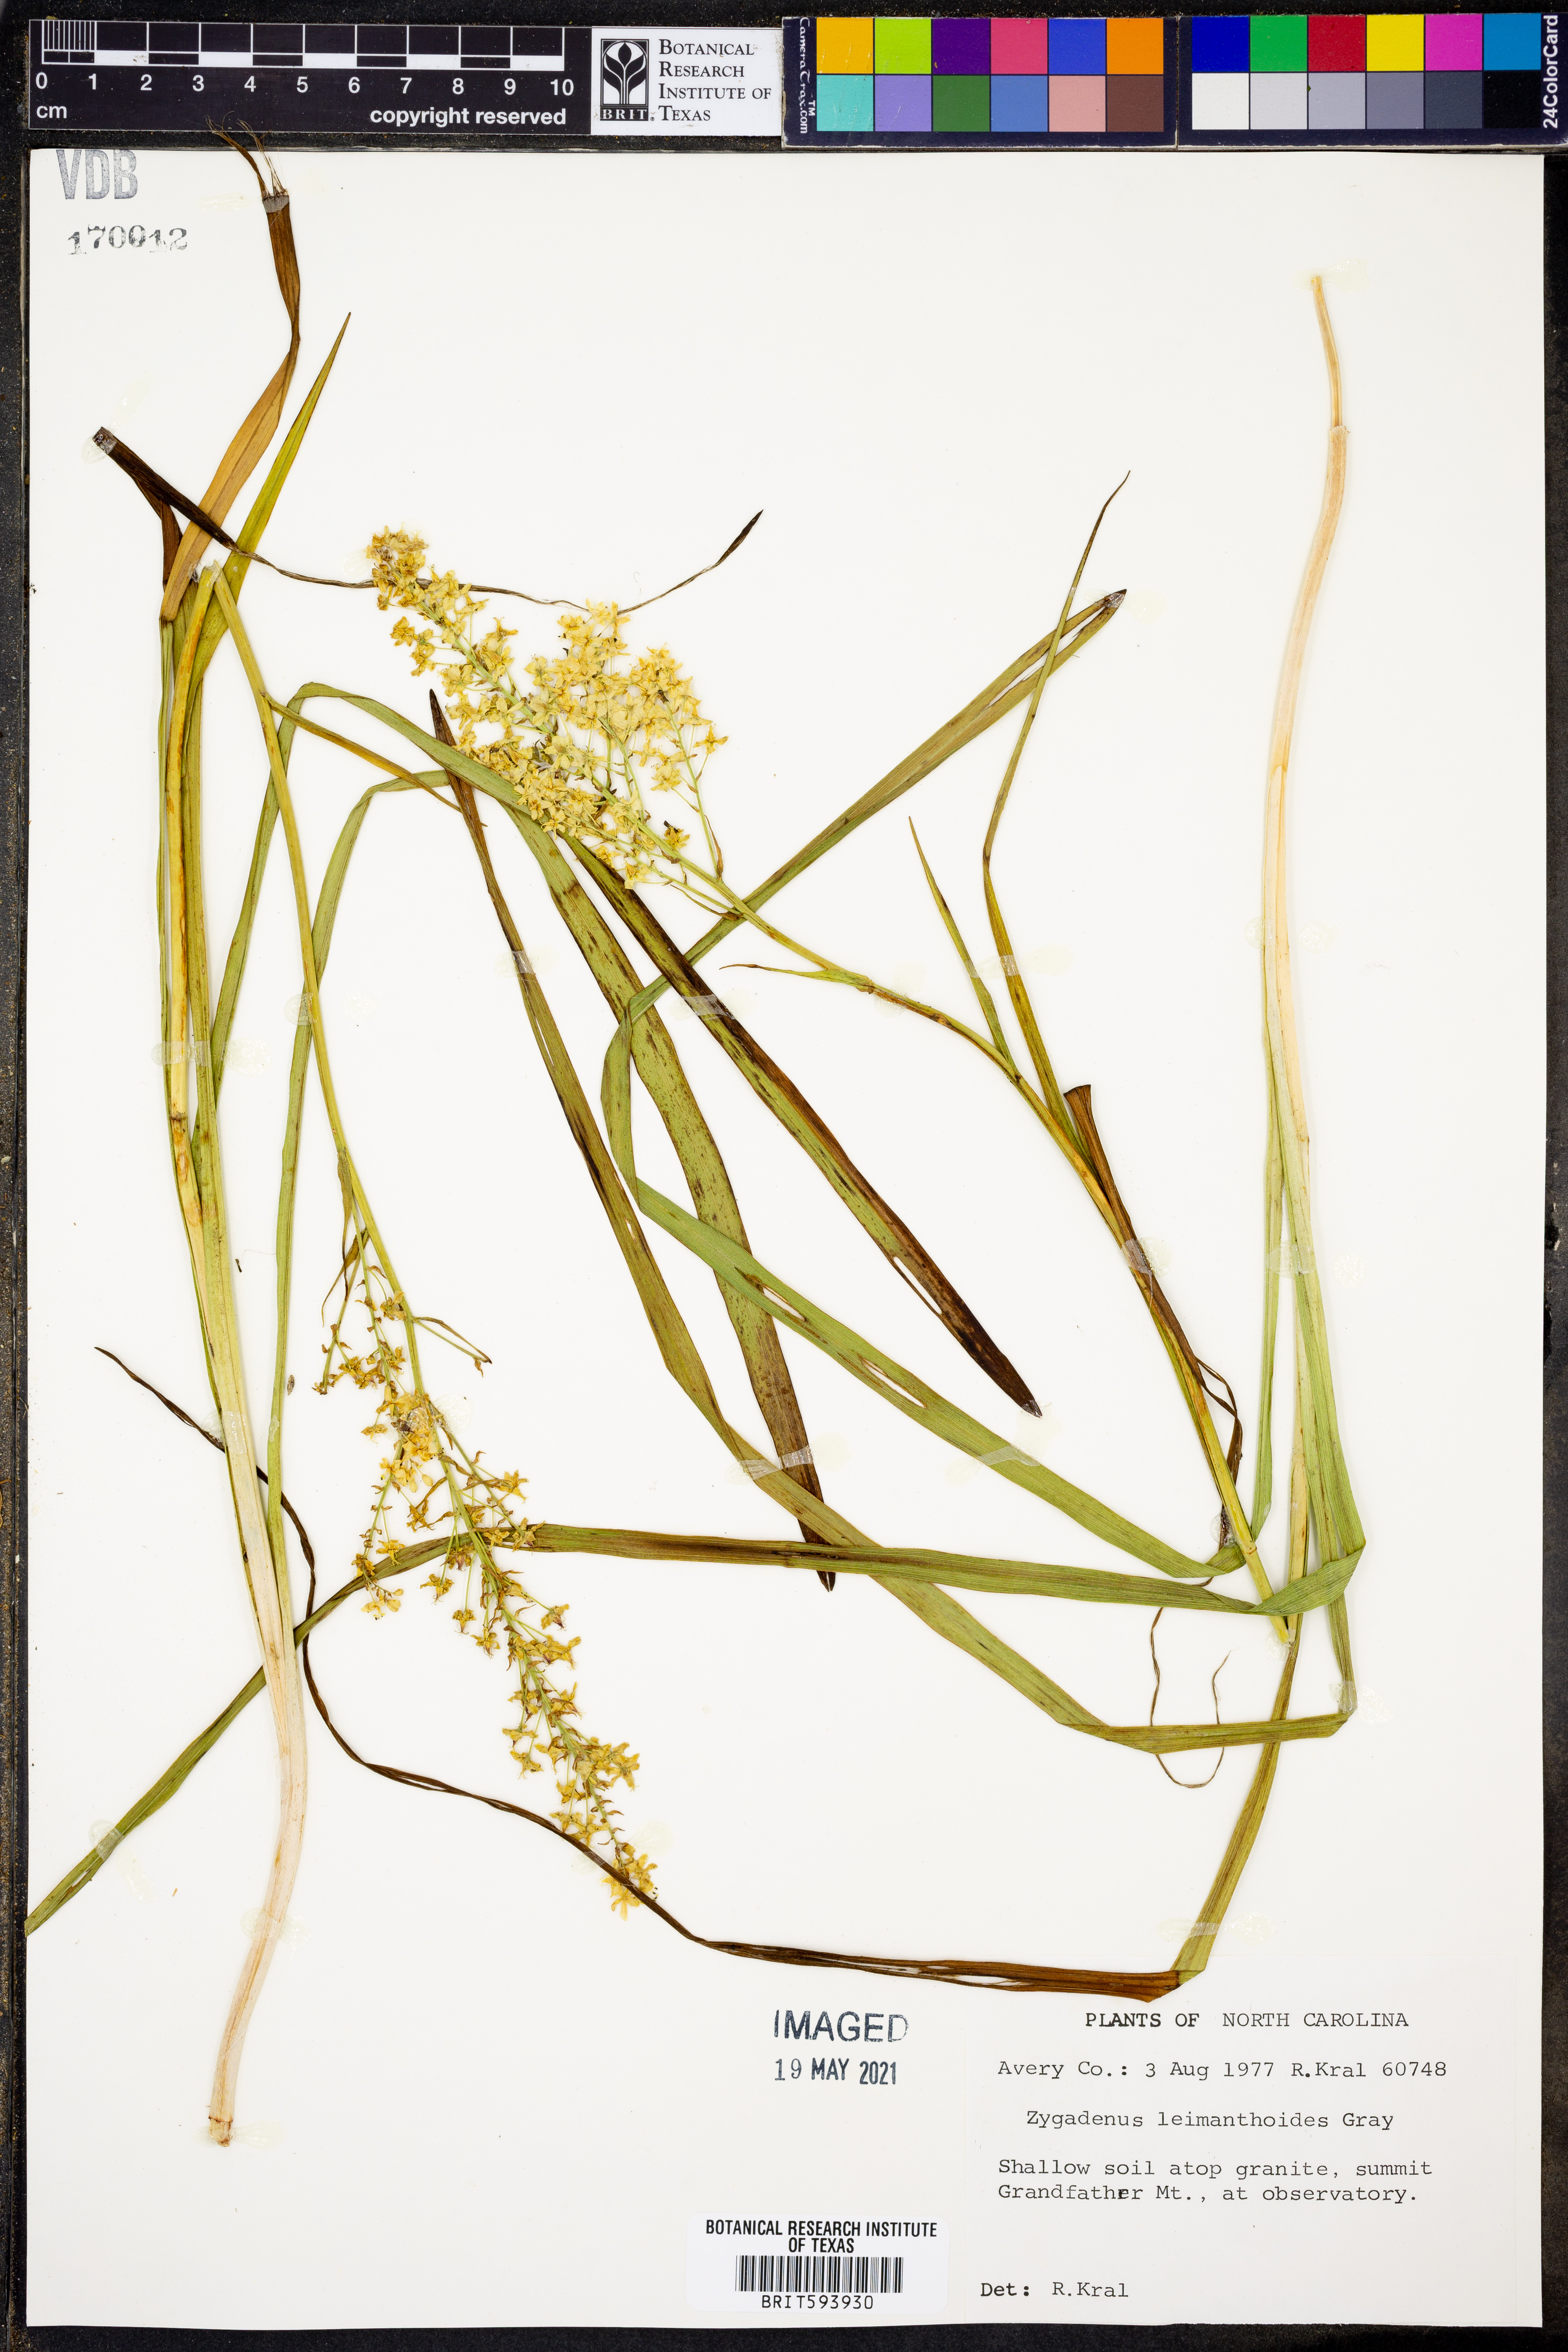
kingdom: Plantae
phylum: Tracheophyta
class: Liliopsida
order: Liliales
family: Melanthiaceae
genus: Stenanthium
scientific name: Stenanthium leimanthoides
